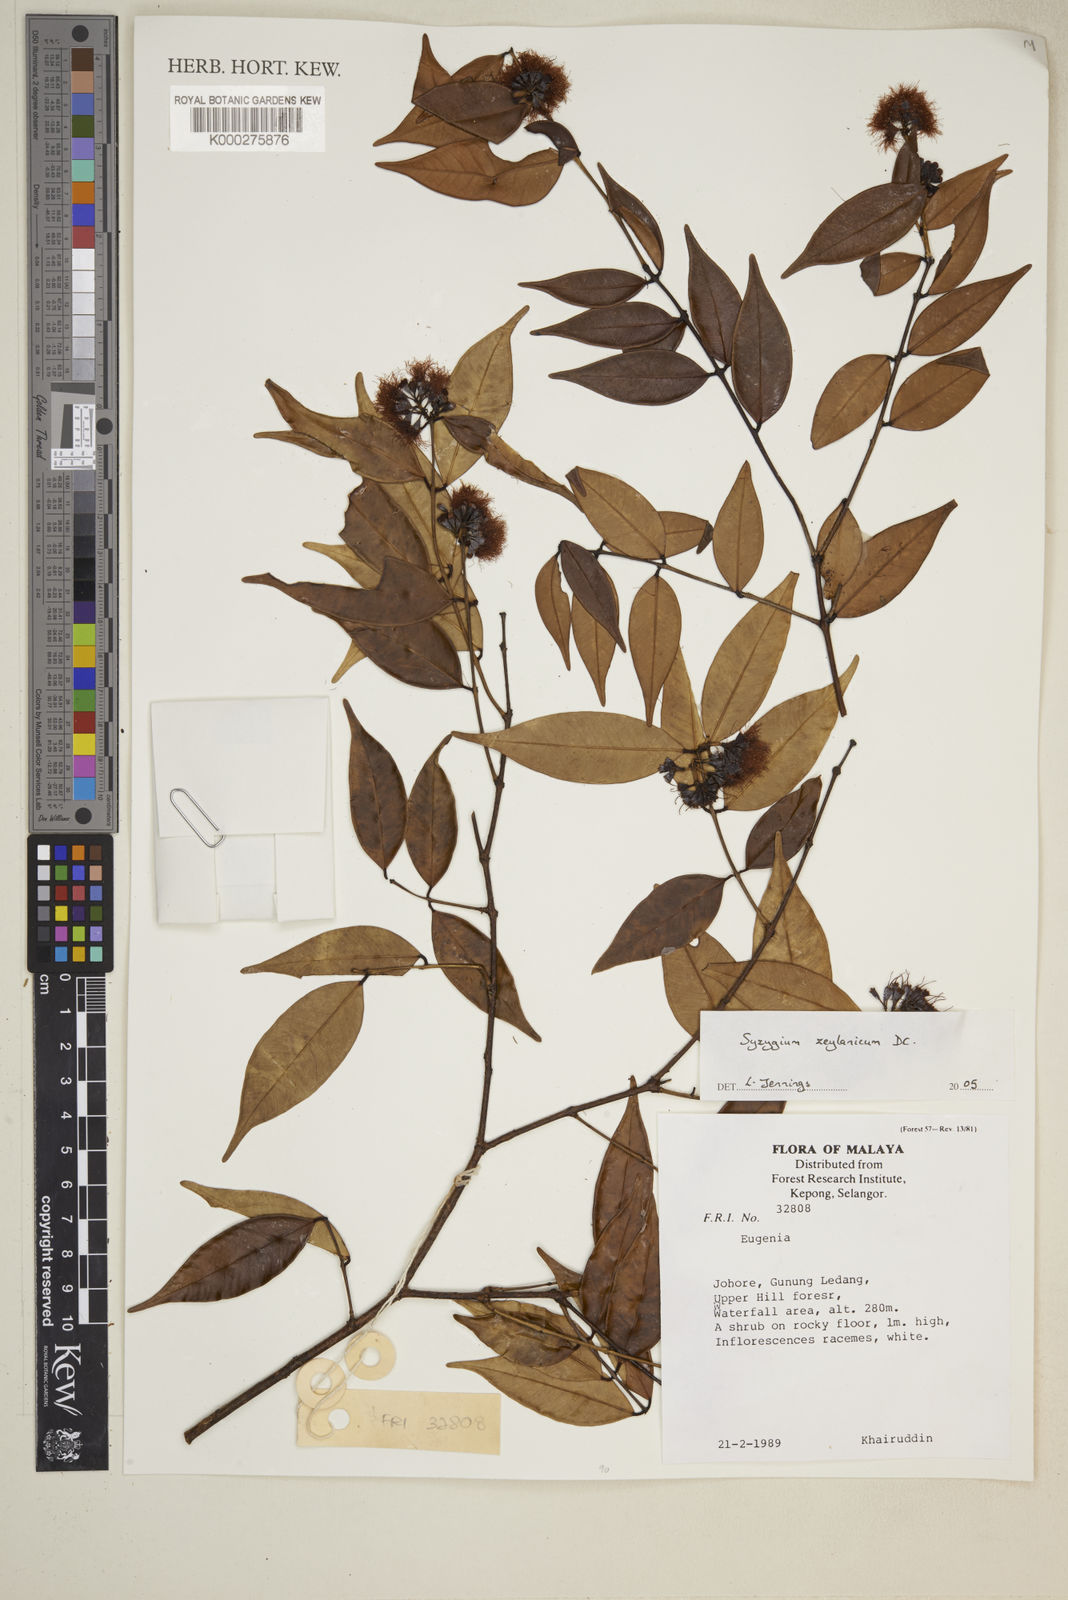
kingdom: Plantae
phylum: Tracheophyta
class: Magnoliopsida
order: Myrtales
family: Myrtaceae
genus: Syzygium
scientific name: Syzygium zeylanicum
